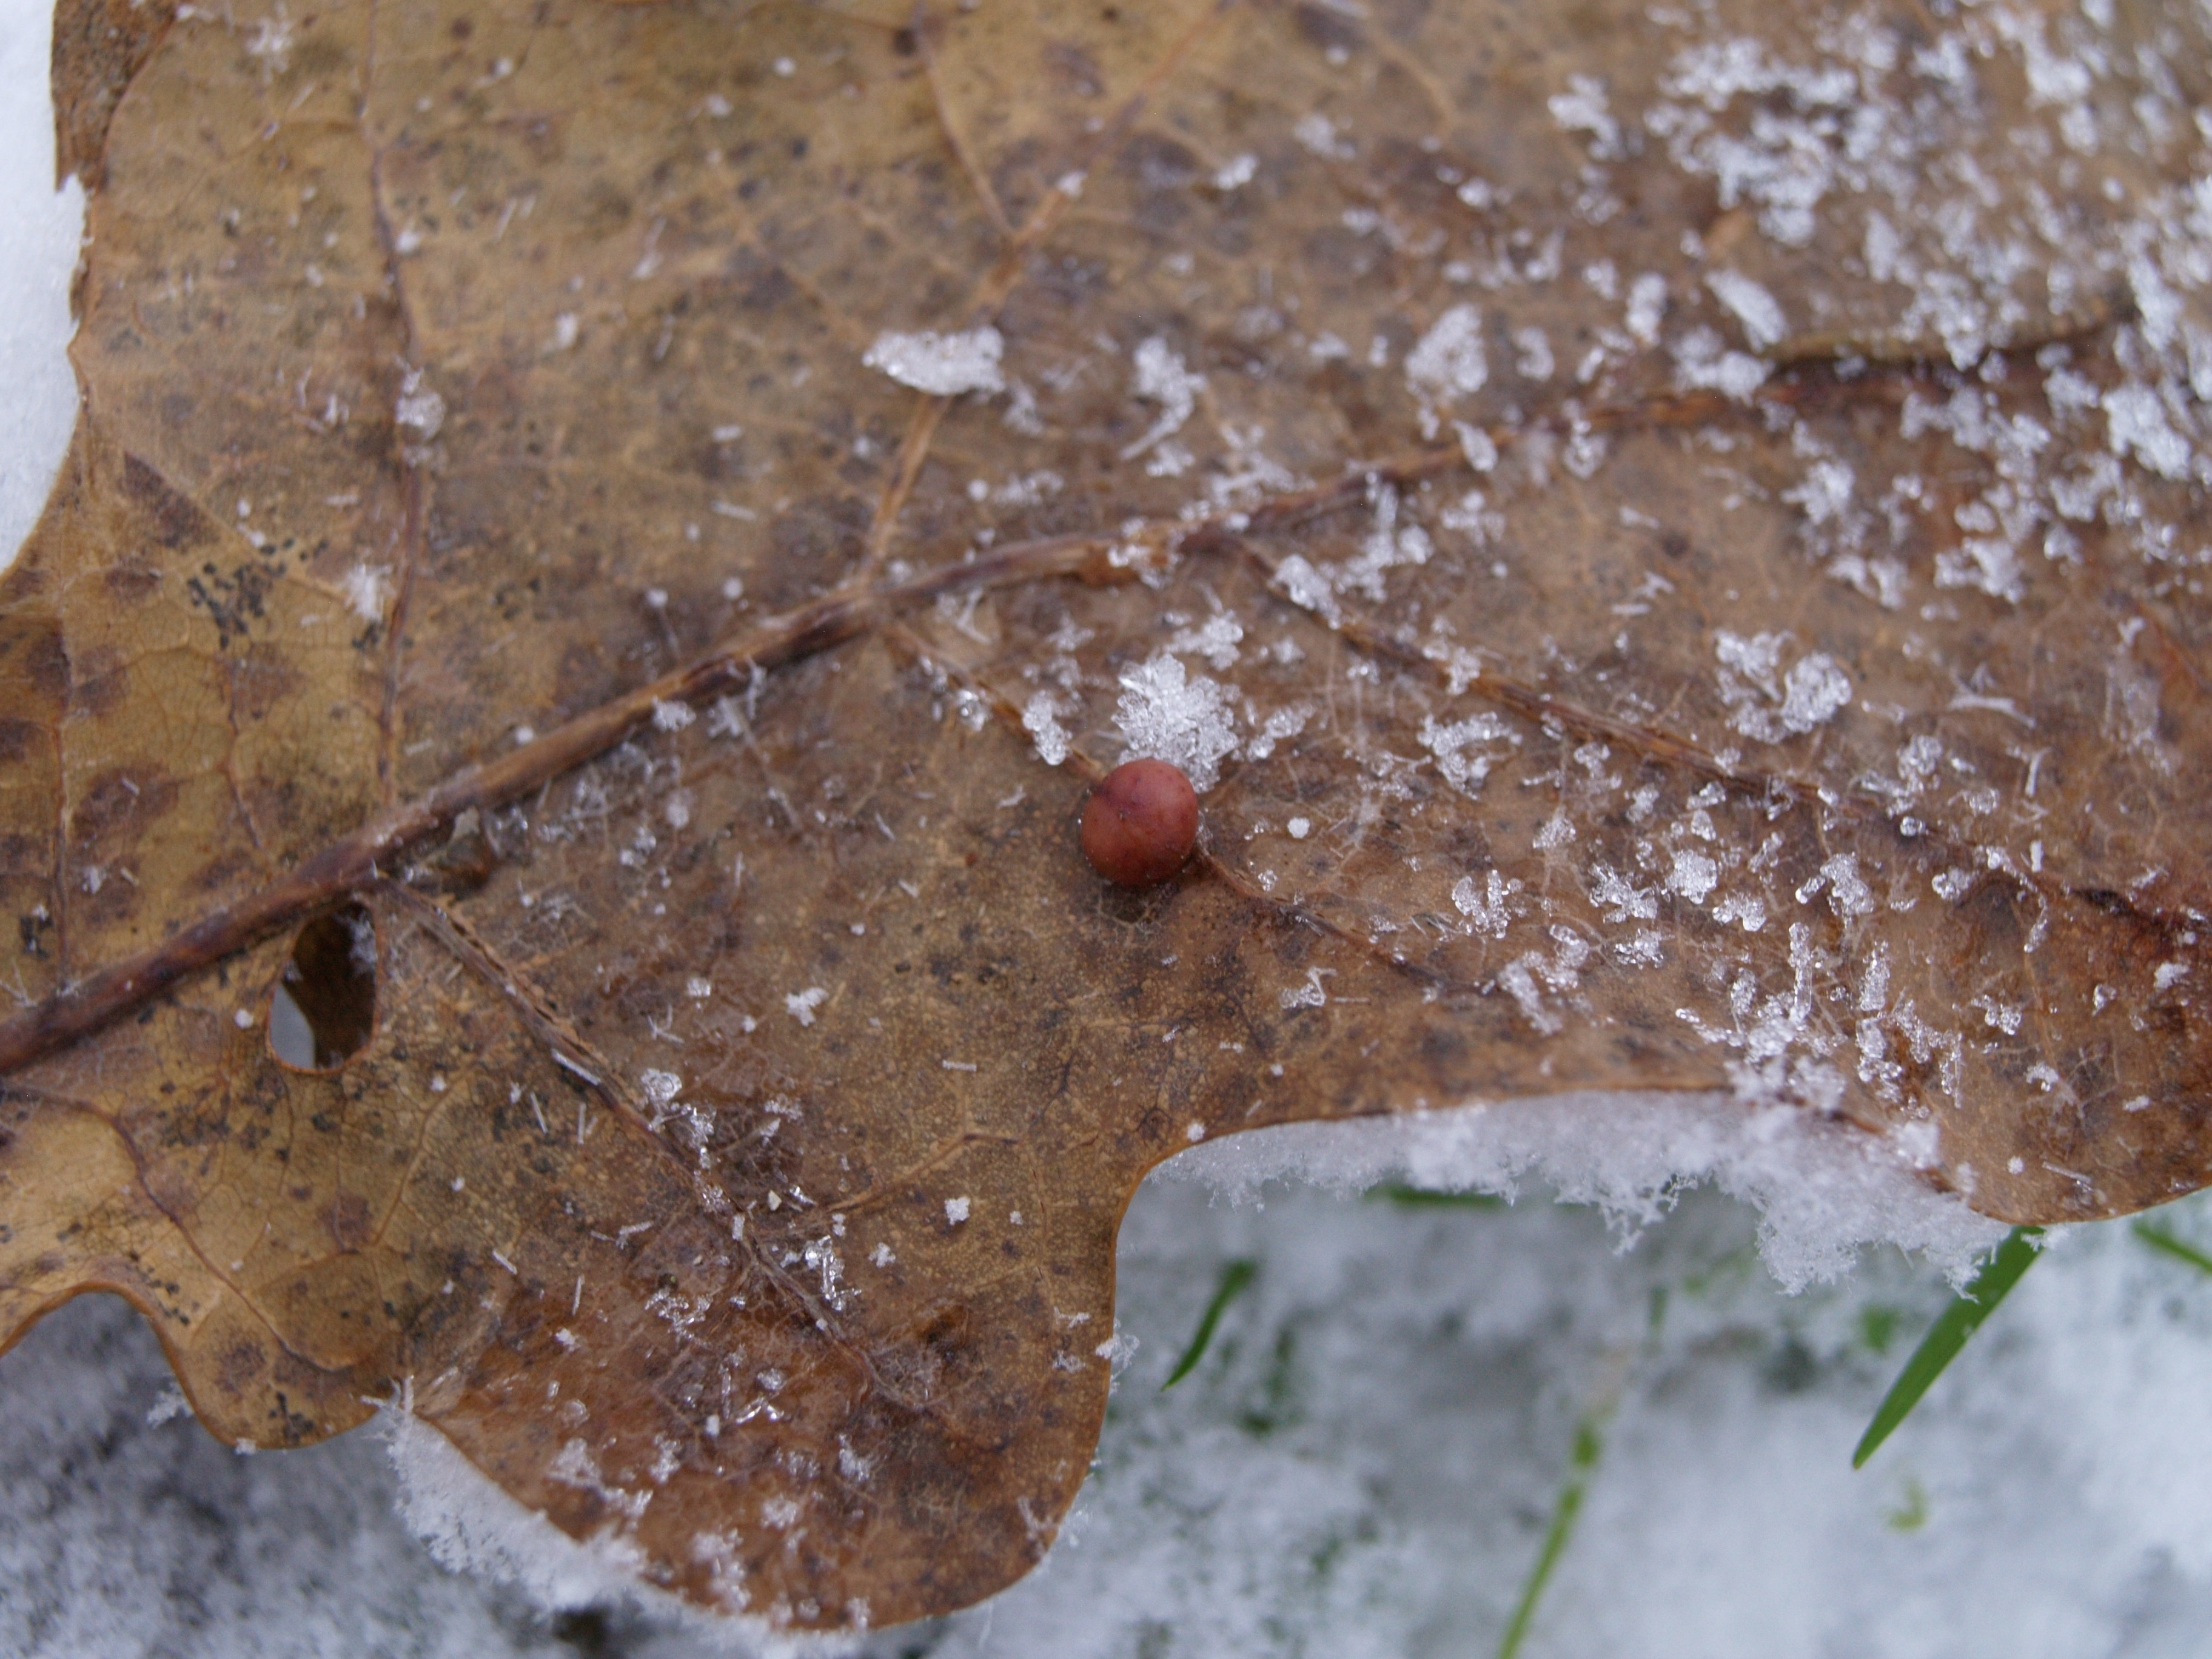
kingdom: Animalia
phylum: Arthropoda
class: Insecta
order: Hymenoptera
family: Cynipidae
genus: Cynips
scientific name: Cynips divisa
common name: Red currant gall
